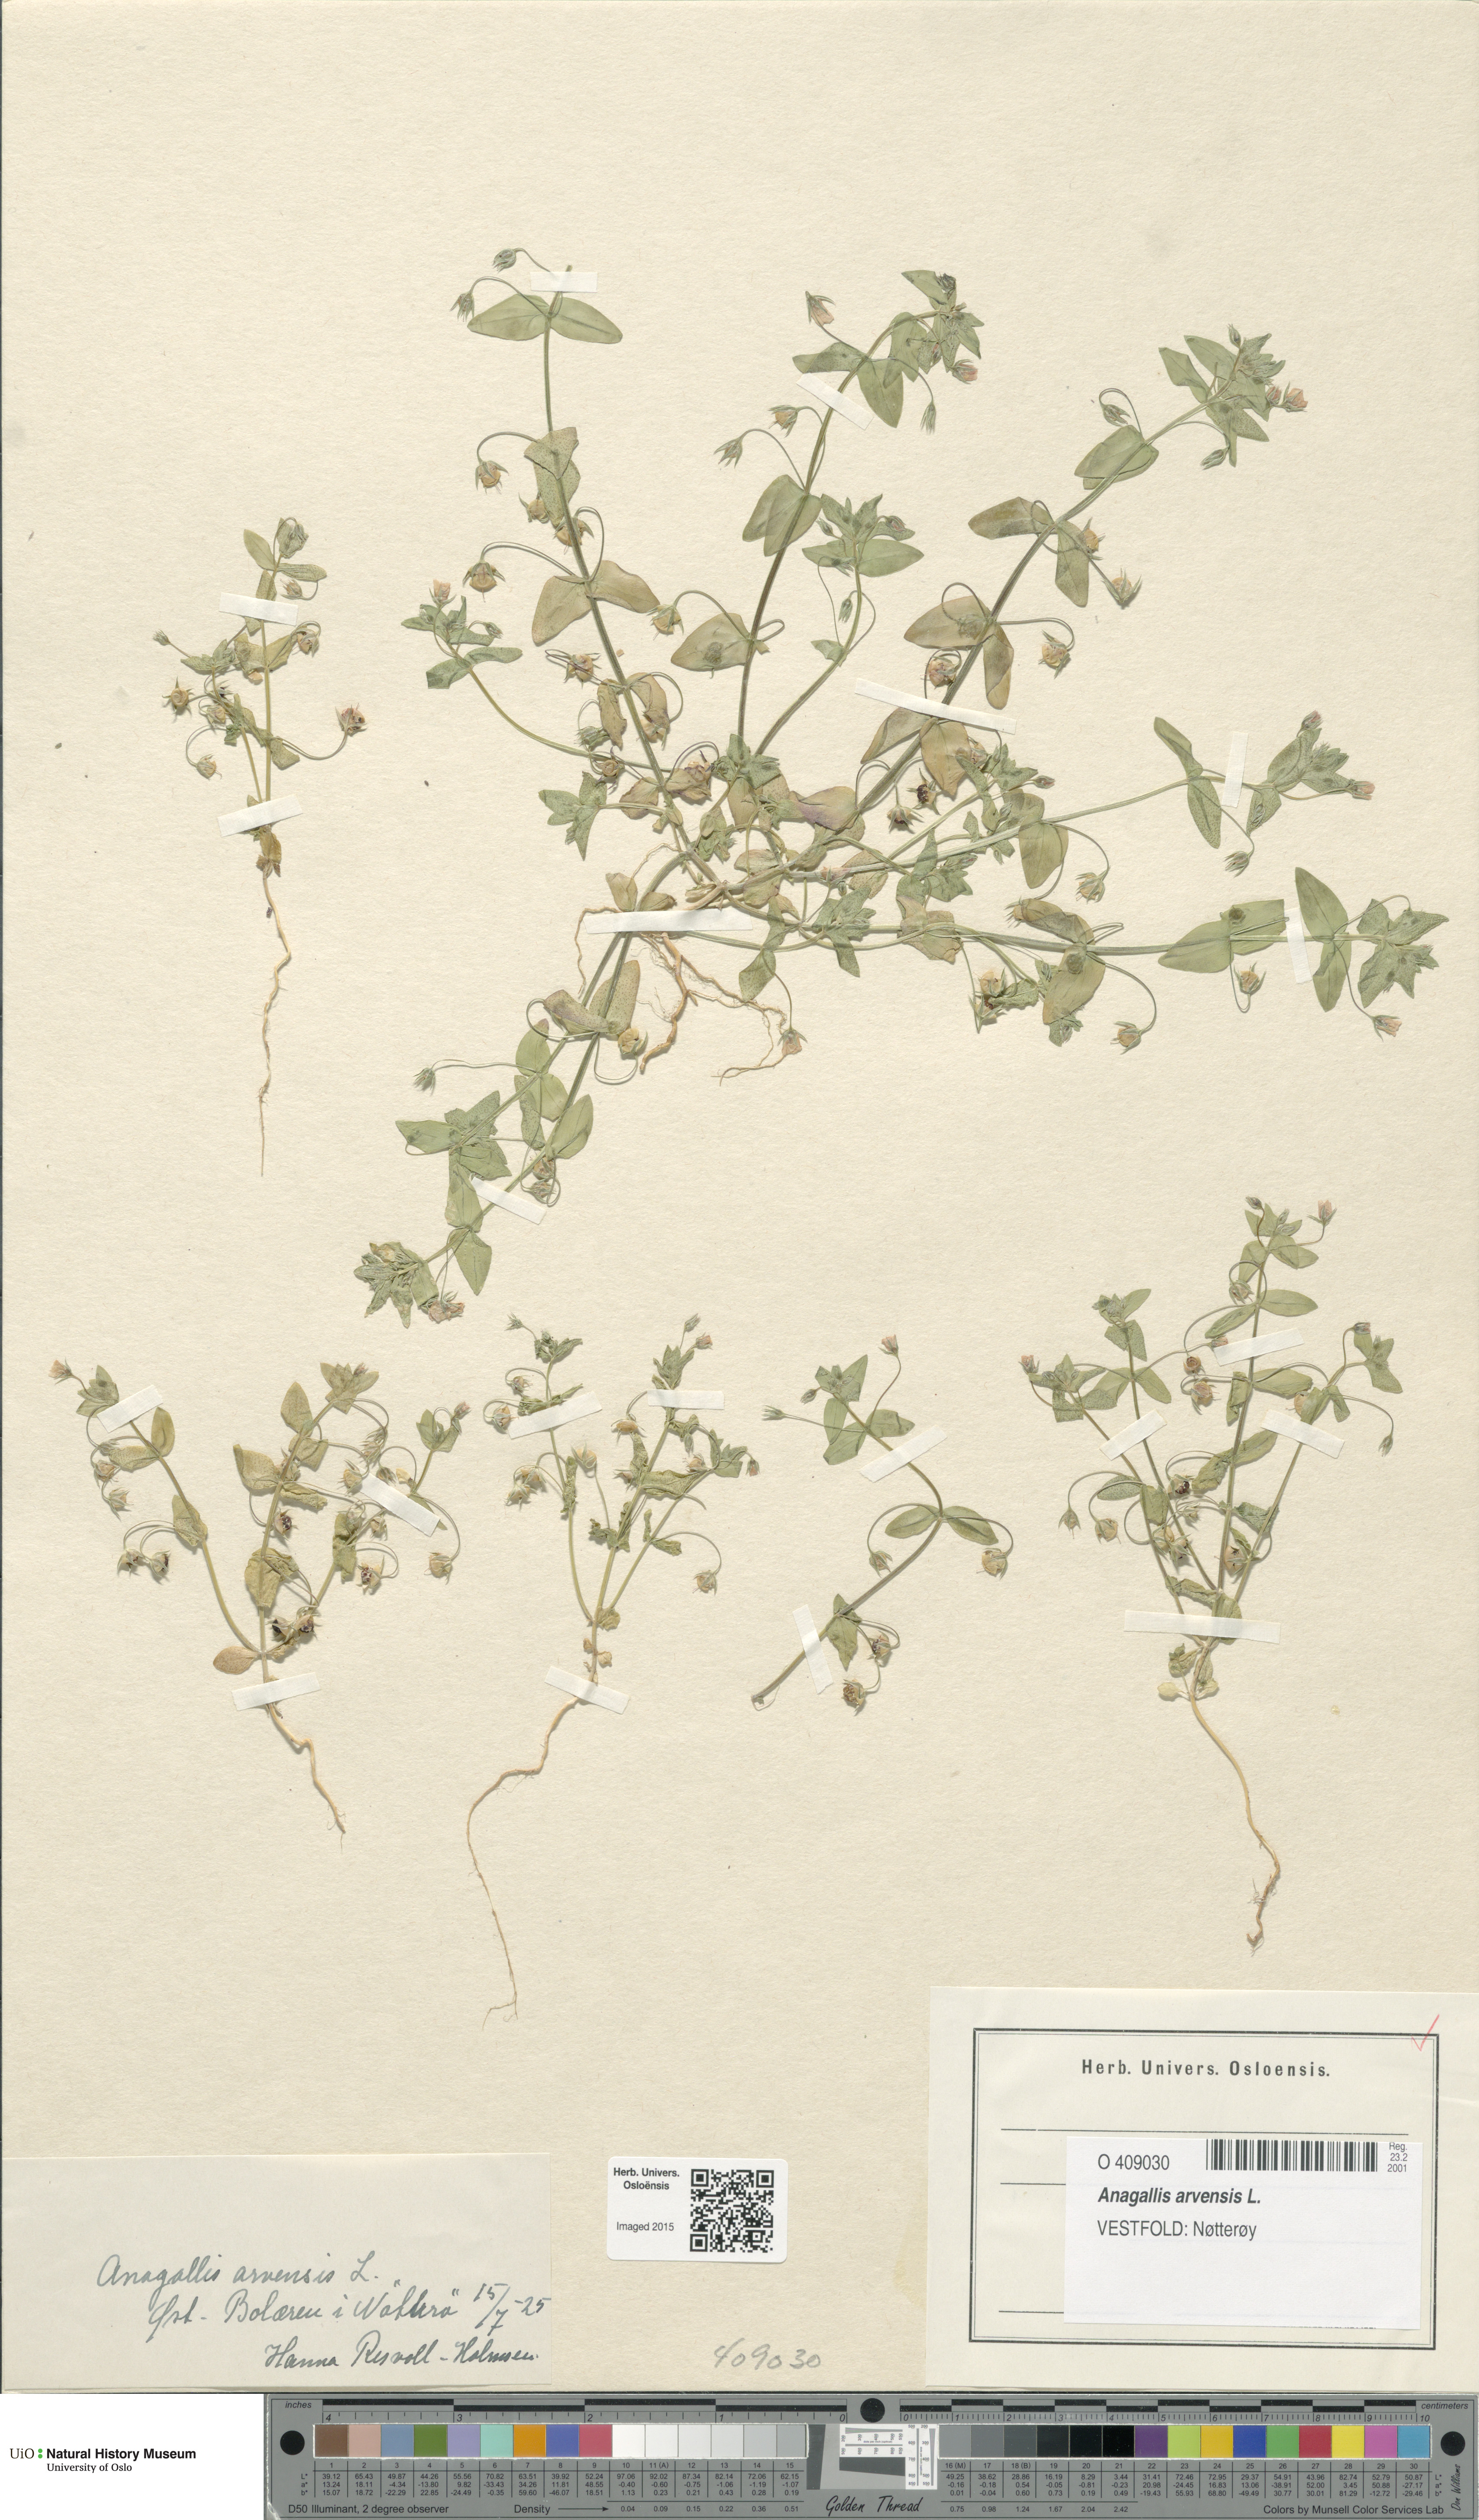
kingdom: Plantae
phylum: Tracheophyta
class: Magnoliopsida
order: Ericales
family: Primulaceae
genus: Lysimachia
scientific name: Lysimachia arvensis
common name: Scarlet pimpernel
